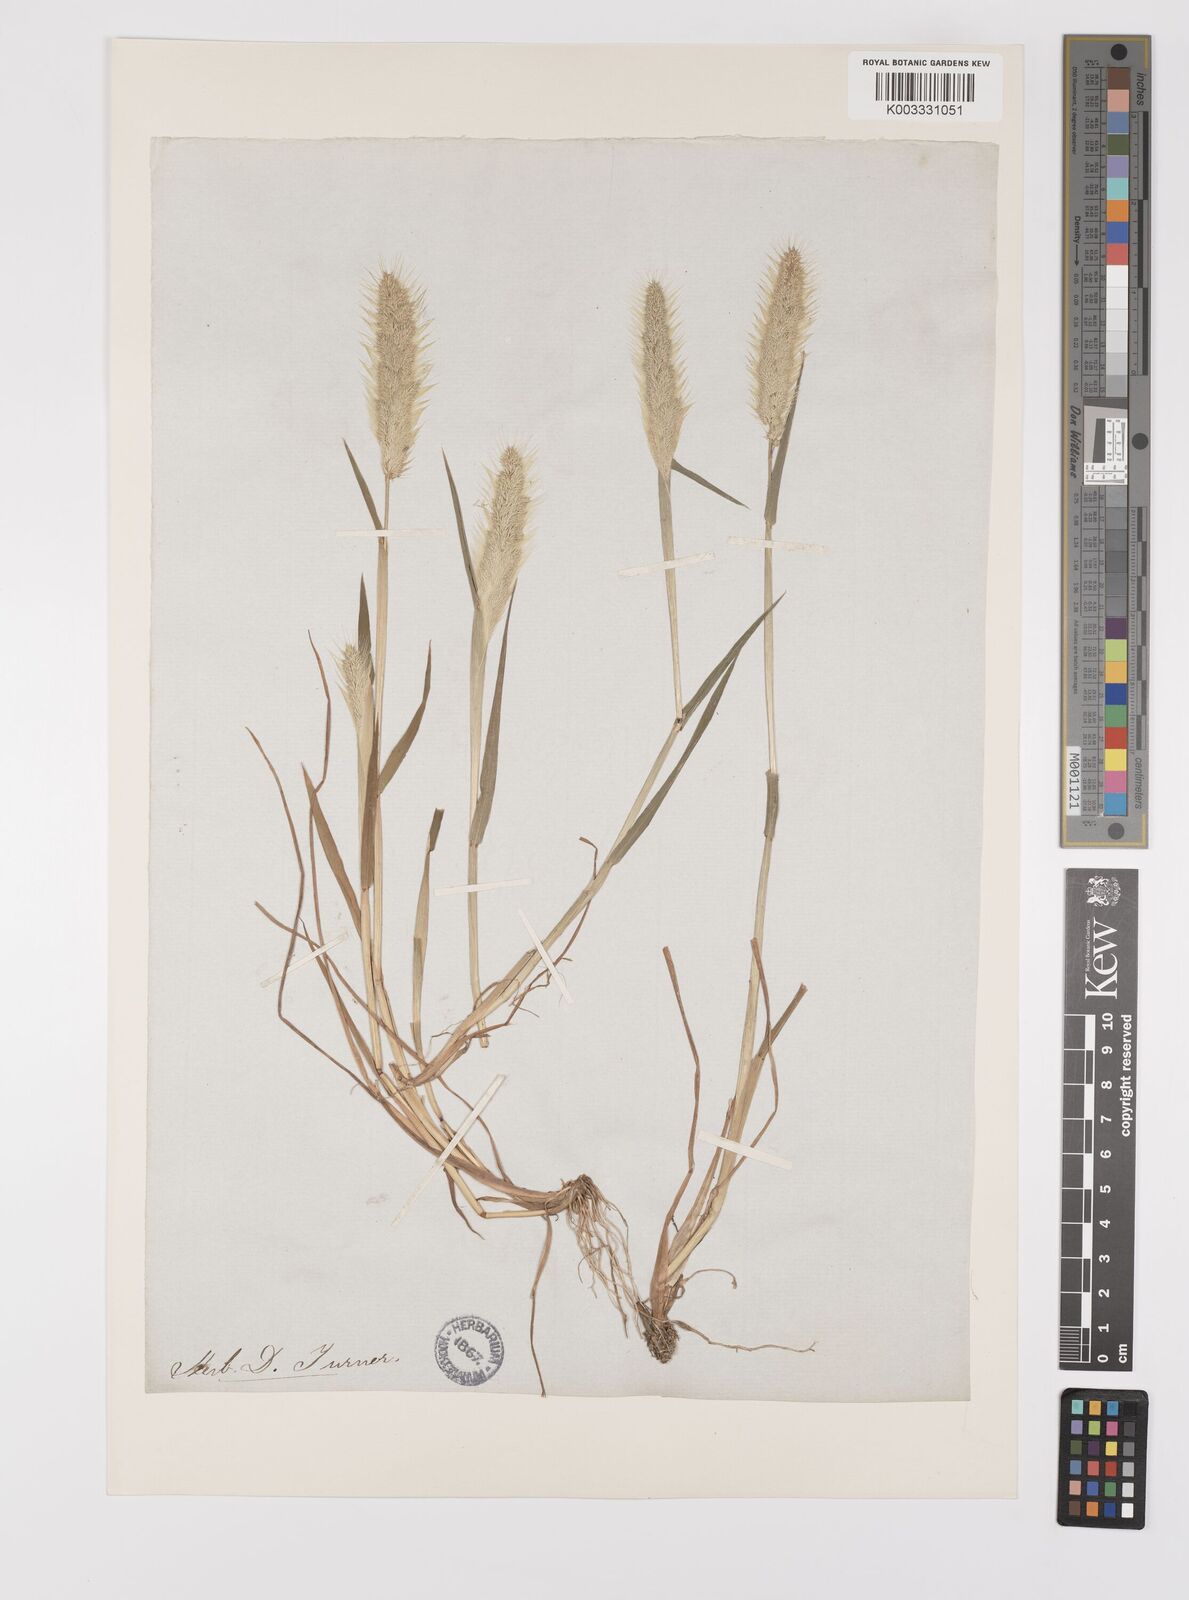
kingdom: Plantae
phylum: Tracheophyta
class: Liliopsida
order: Poales
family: Poaceae
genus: Polypogon
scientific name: Polypogon monspeliensis
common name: Annual rabbitsfoot grass
